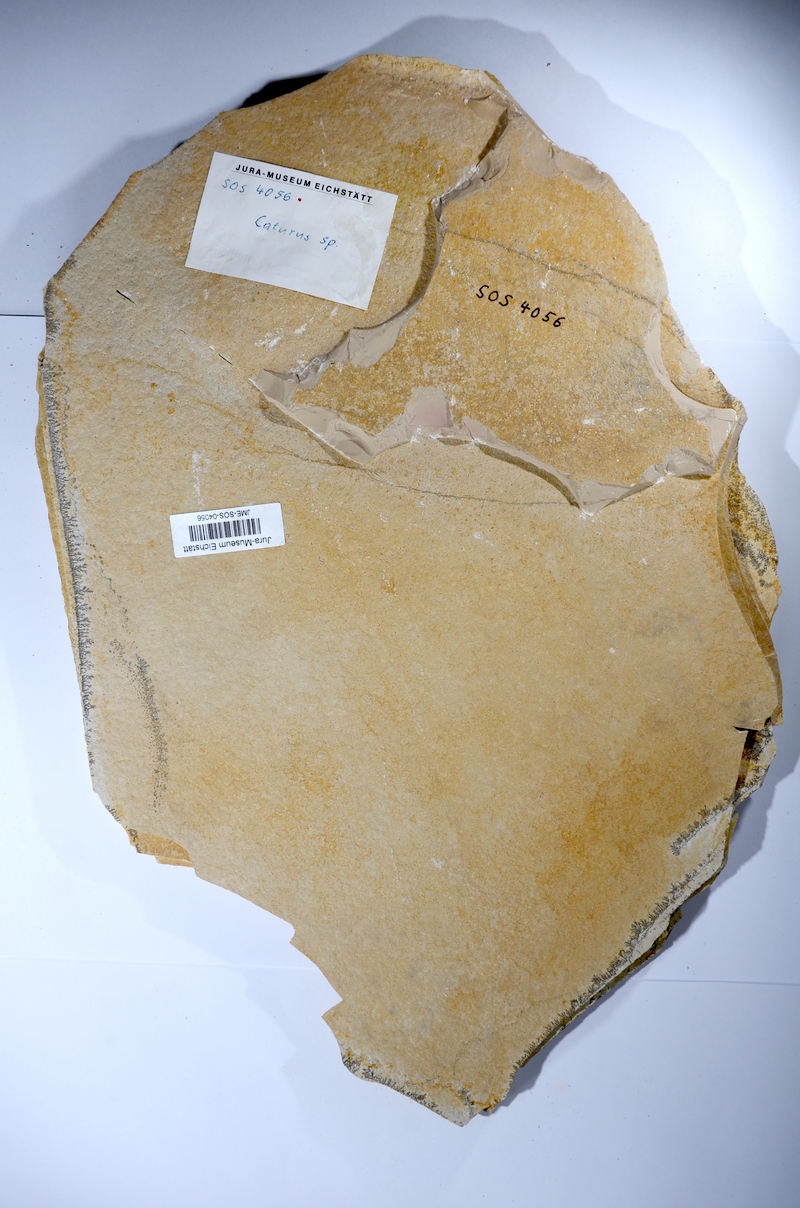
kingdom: Animalia
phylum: Chordata
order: Amiiformes
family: Caturidae
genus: Caturus
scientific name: Caturus
